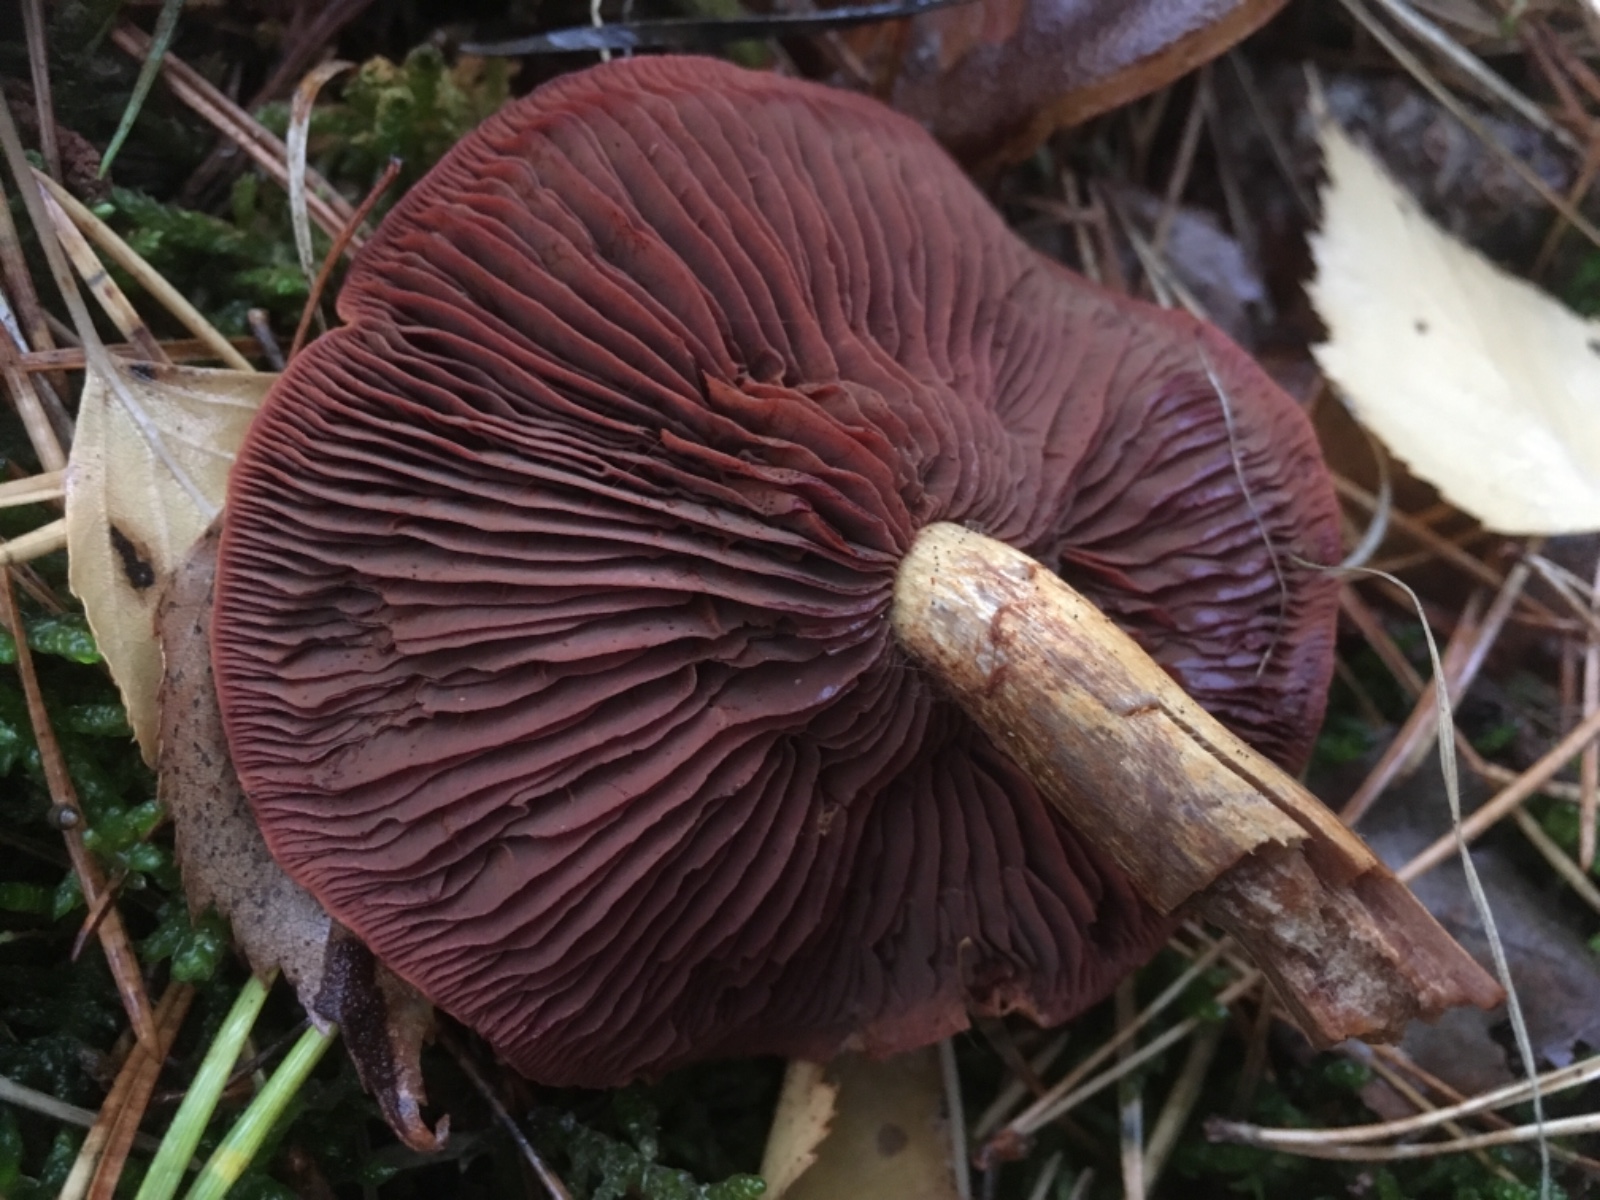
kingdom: Fungi
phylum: Basidiomycota
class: Agaricomycetes
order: Agaricales
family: Cortinariaceae
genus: Cortinarius
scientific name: Cortinarius
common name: cinnoberbladet slørhat
